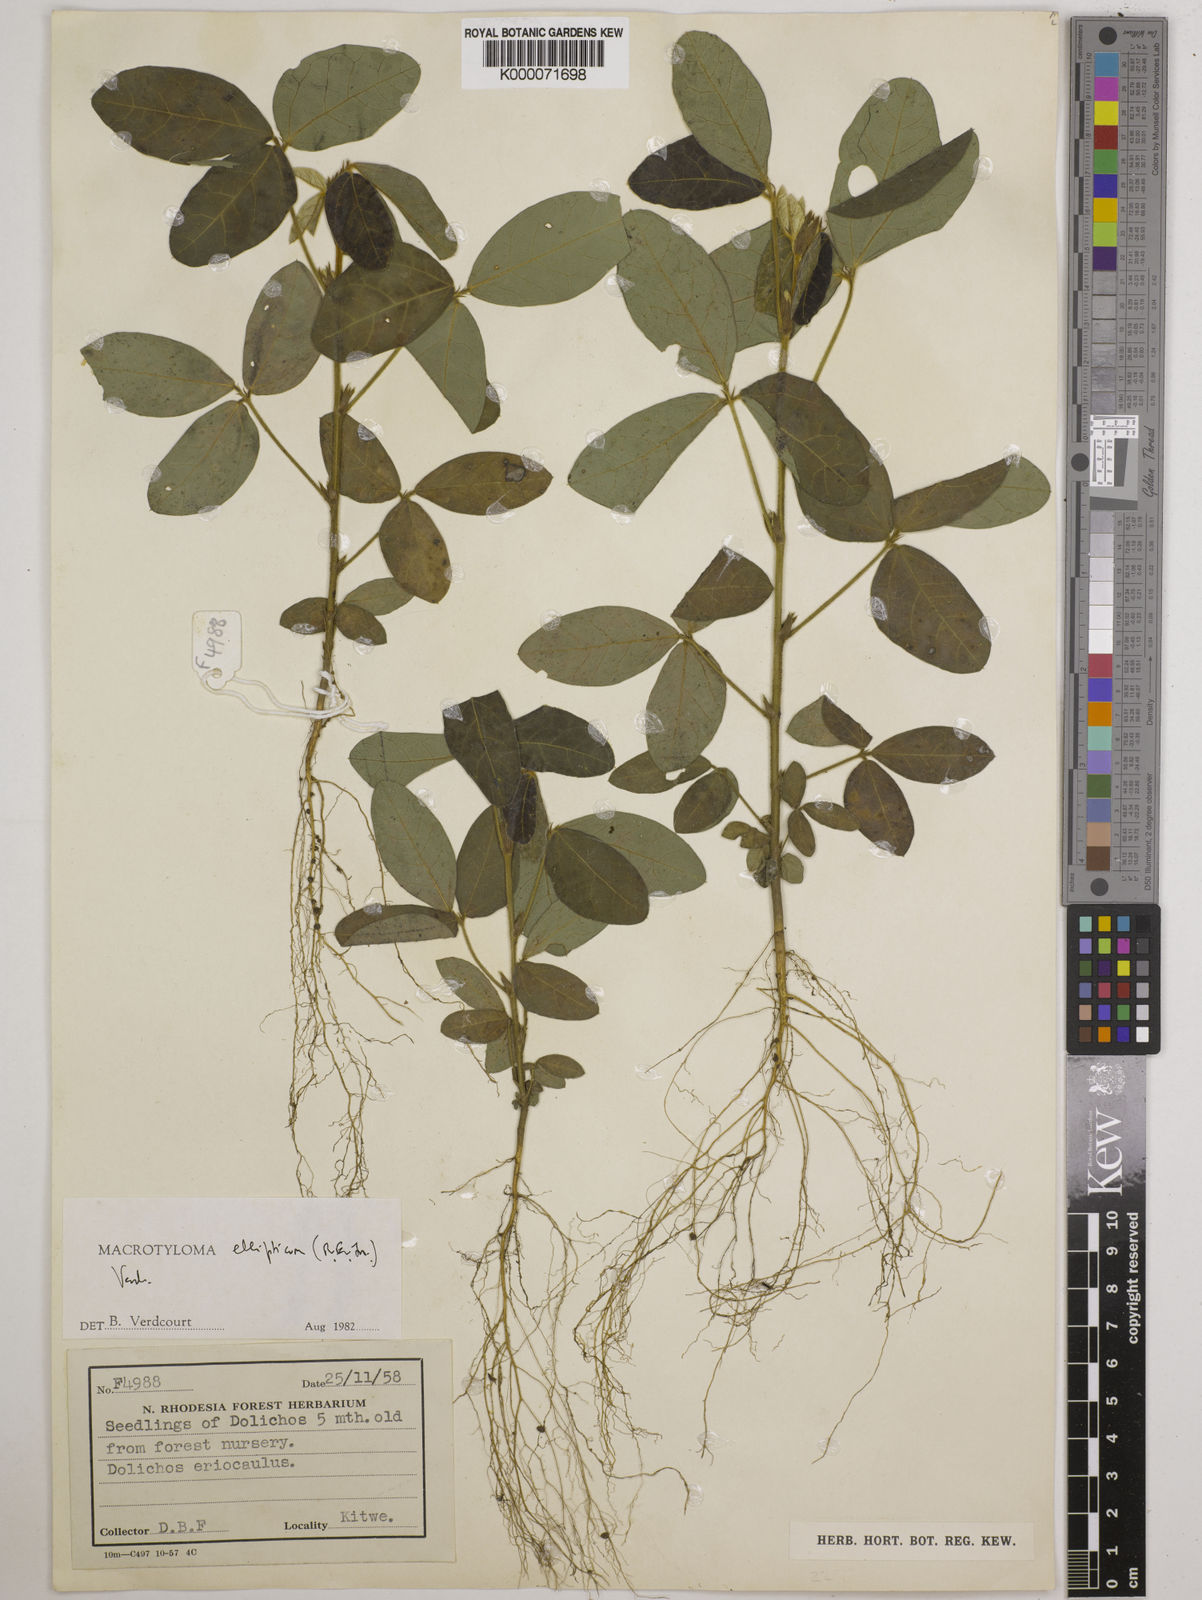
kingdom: Plantae
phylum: Tracheophyta
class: Magnoliopsida
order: Fabales
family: Fabaceae
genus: Macrotyloma
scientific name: Macrotyloma ellipticum
